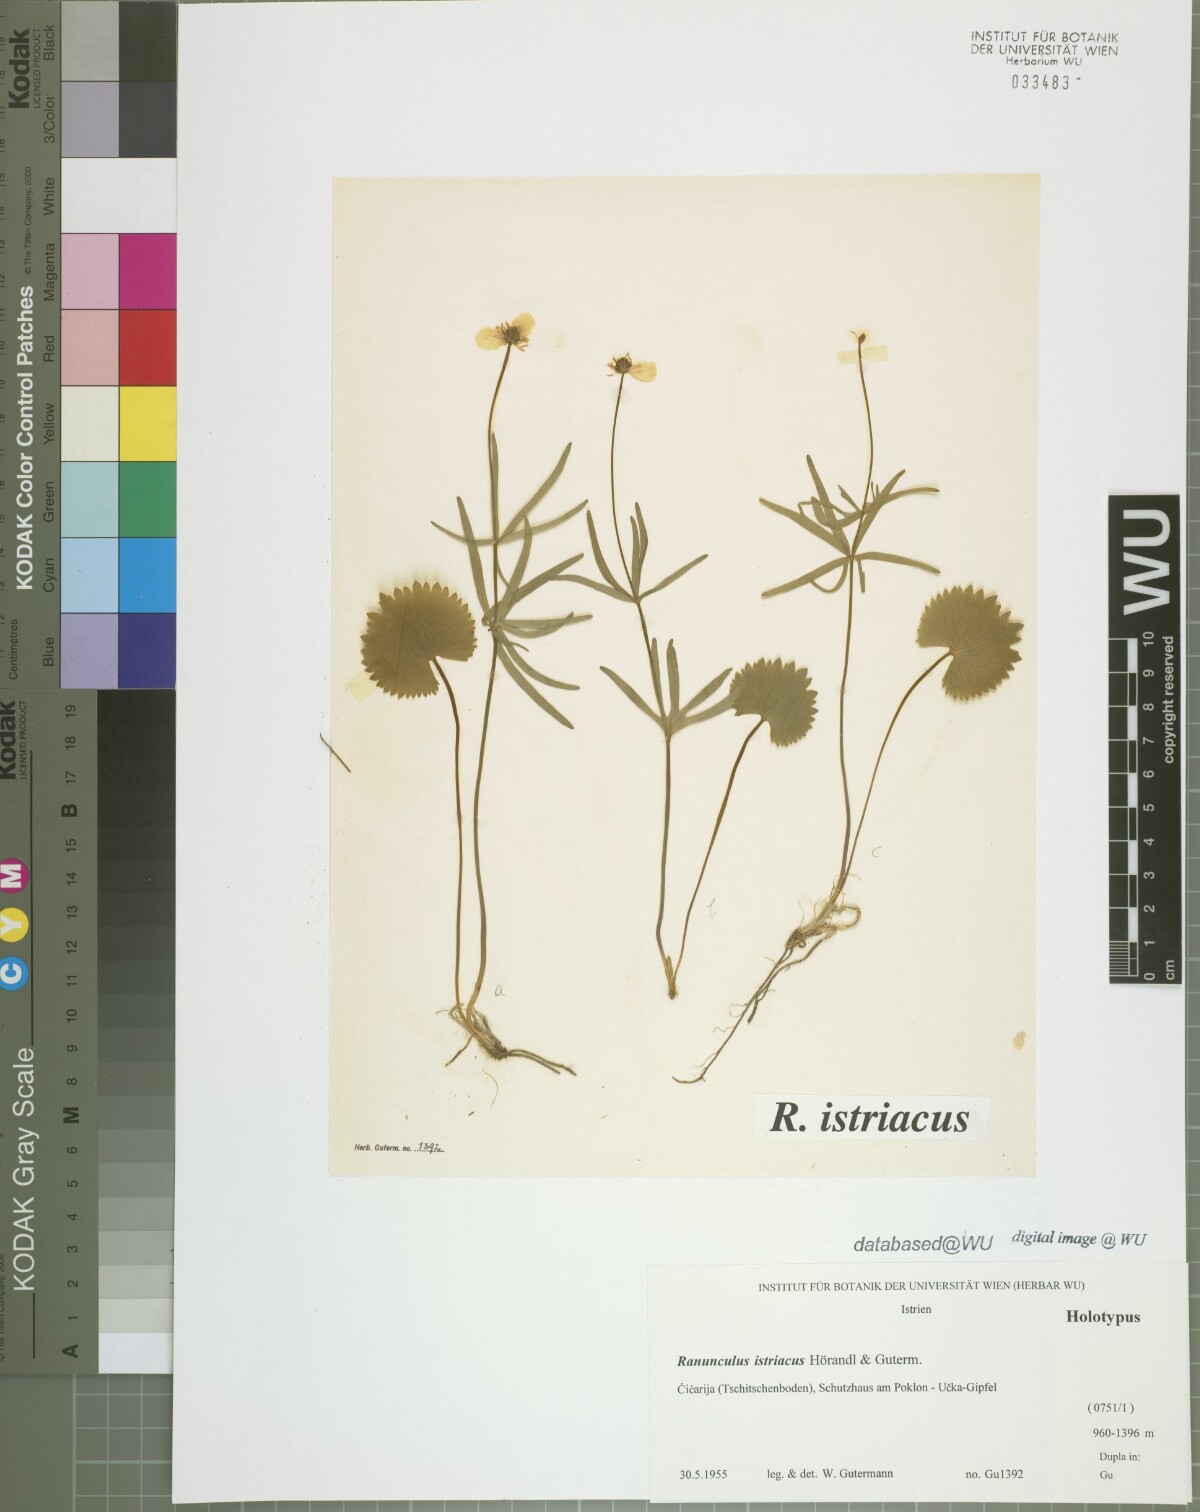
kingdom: Plantae
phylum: Tracheophyta
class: Magnoliopsida
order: Ranunculales
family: Ranunculaceae
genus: Ranunculus
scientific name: Ranunculus istriacus
